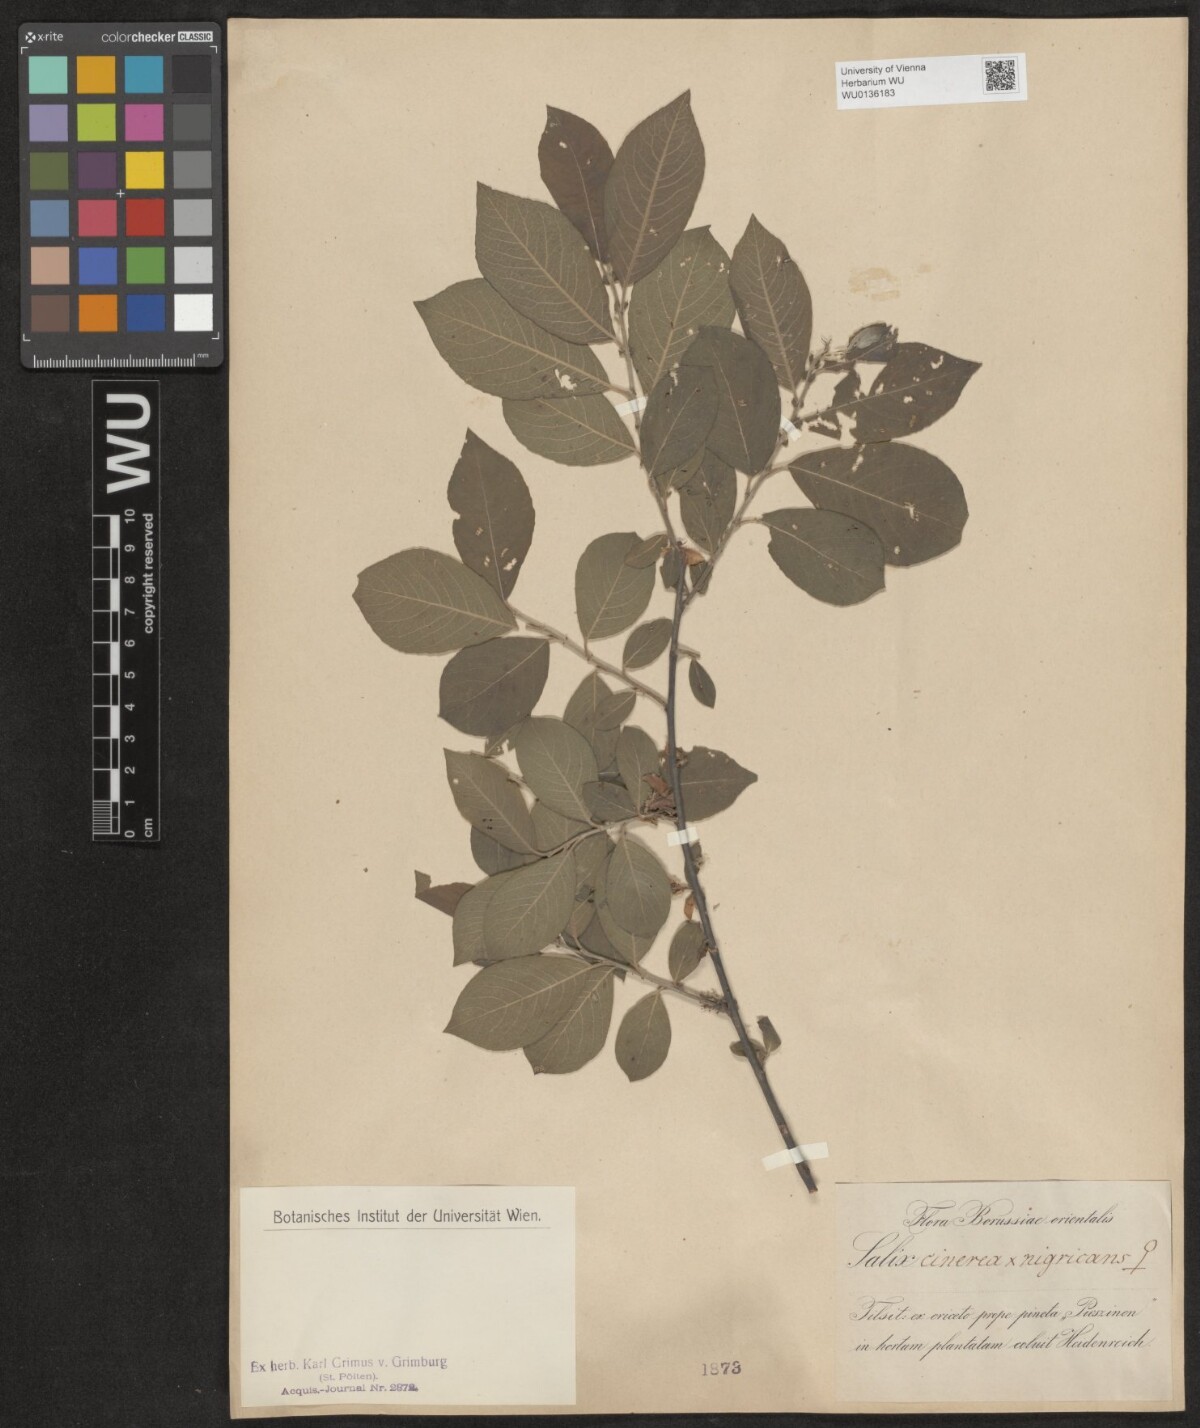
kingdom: Plantae
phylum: Tracheophyta
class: Magnoliopsida
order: Malpighiales
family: Salicaceae
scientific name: Salicaceae
